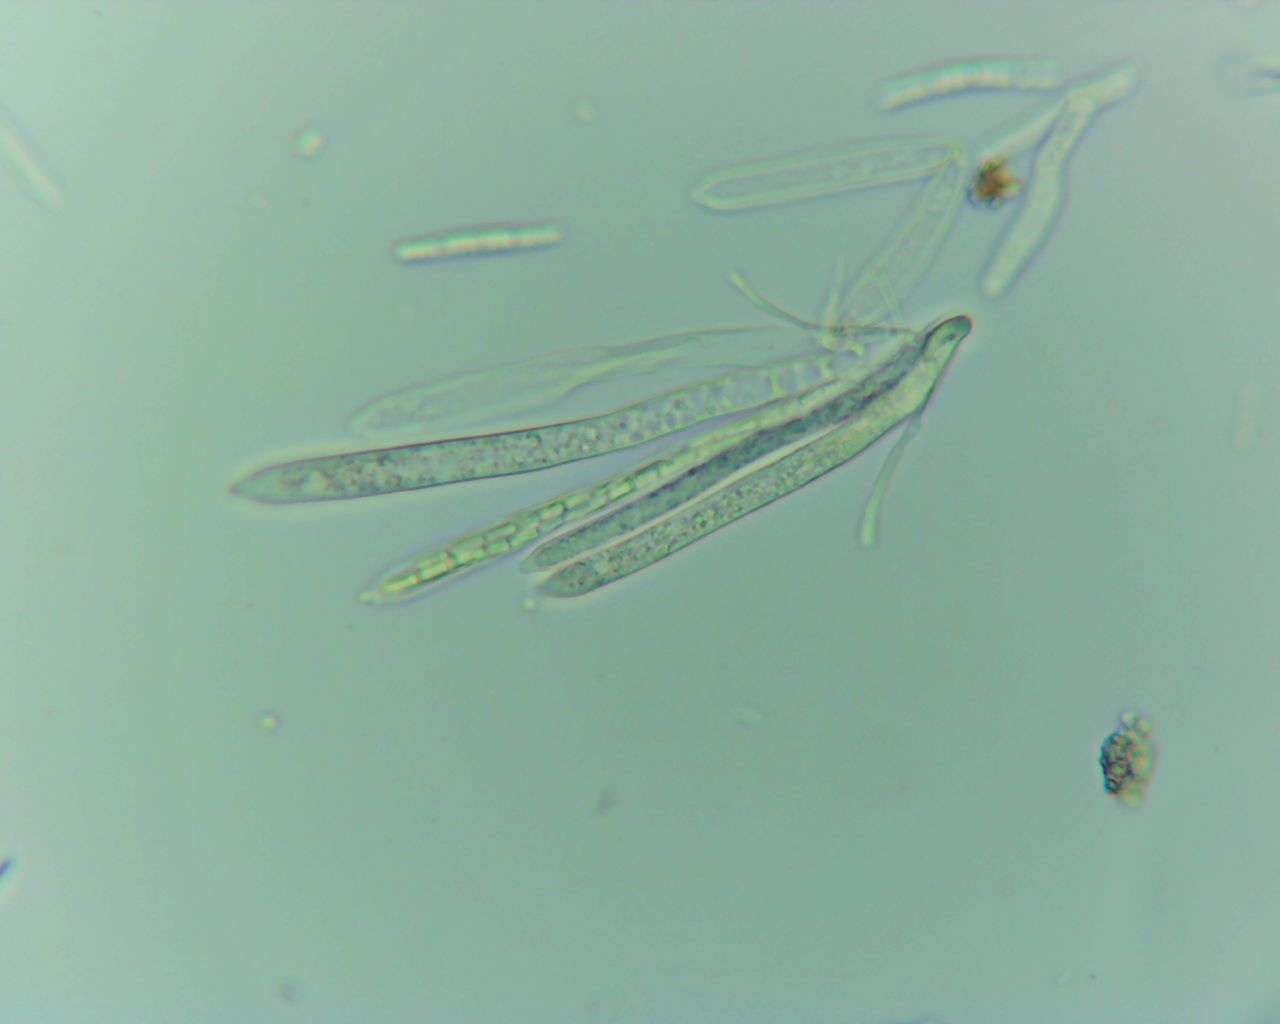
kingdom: Fungi
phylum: Ascomycota
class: Leotiomycetes
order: Helotiales
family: Lachnaceae
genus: Lachnum
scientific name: Lachnum sulphureum
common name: svovlhåret frynseskive
